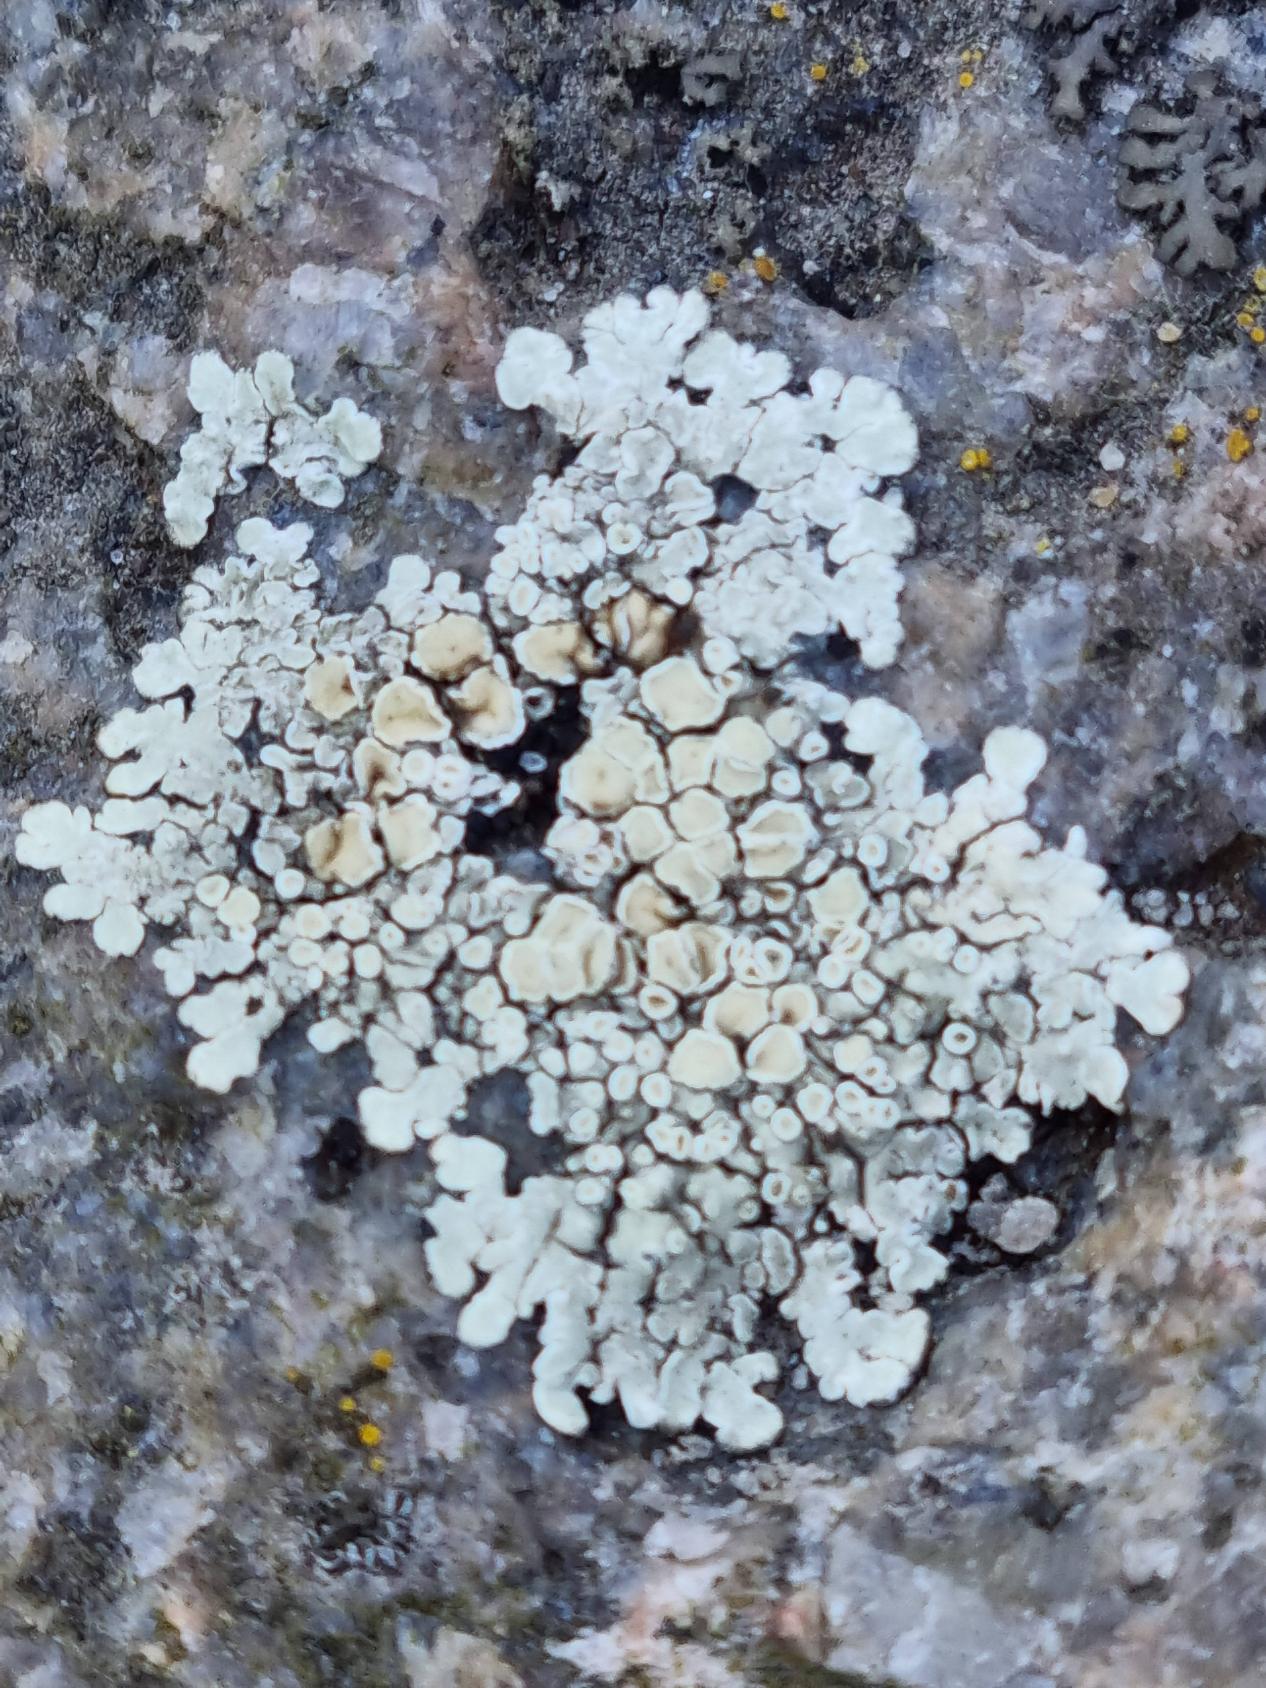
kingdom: Fungi
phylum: Ascomycota
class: Lecanoromycetes
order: Lecanorales
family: Lecanoraceae
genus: Protoparmeliopsis
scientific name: Protoparmeliopsis muralis
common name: Randfliget kantskivelav
